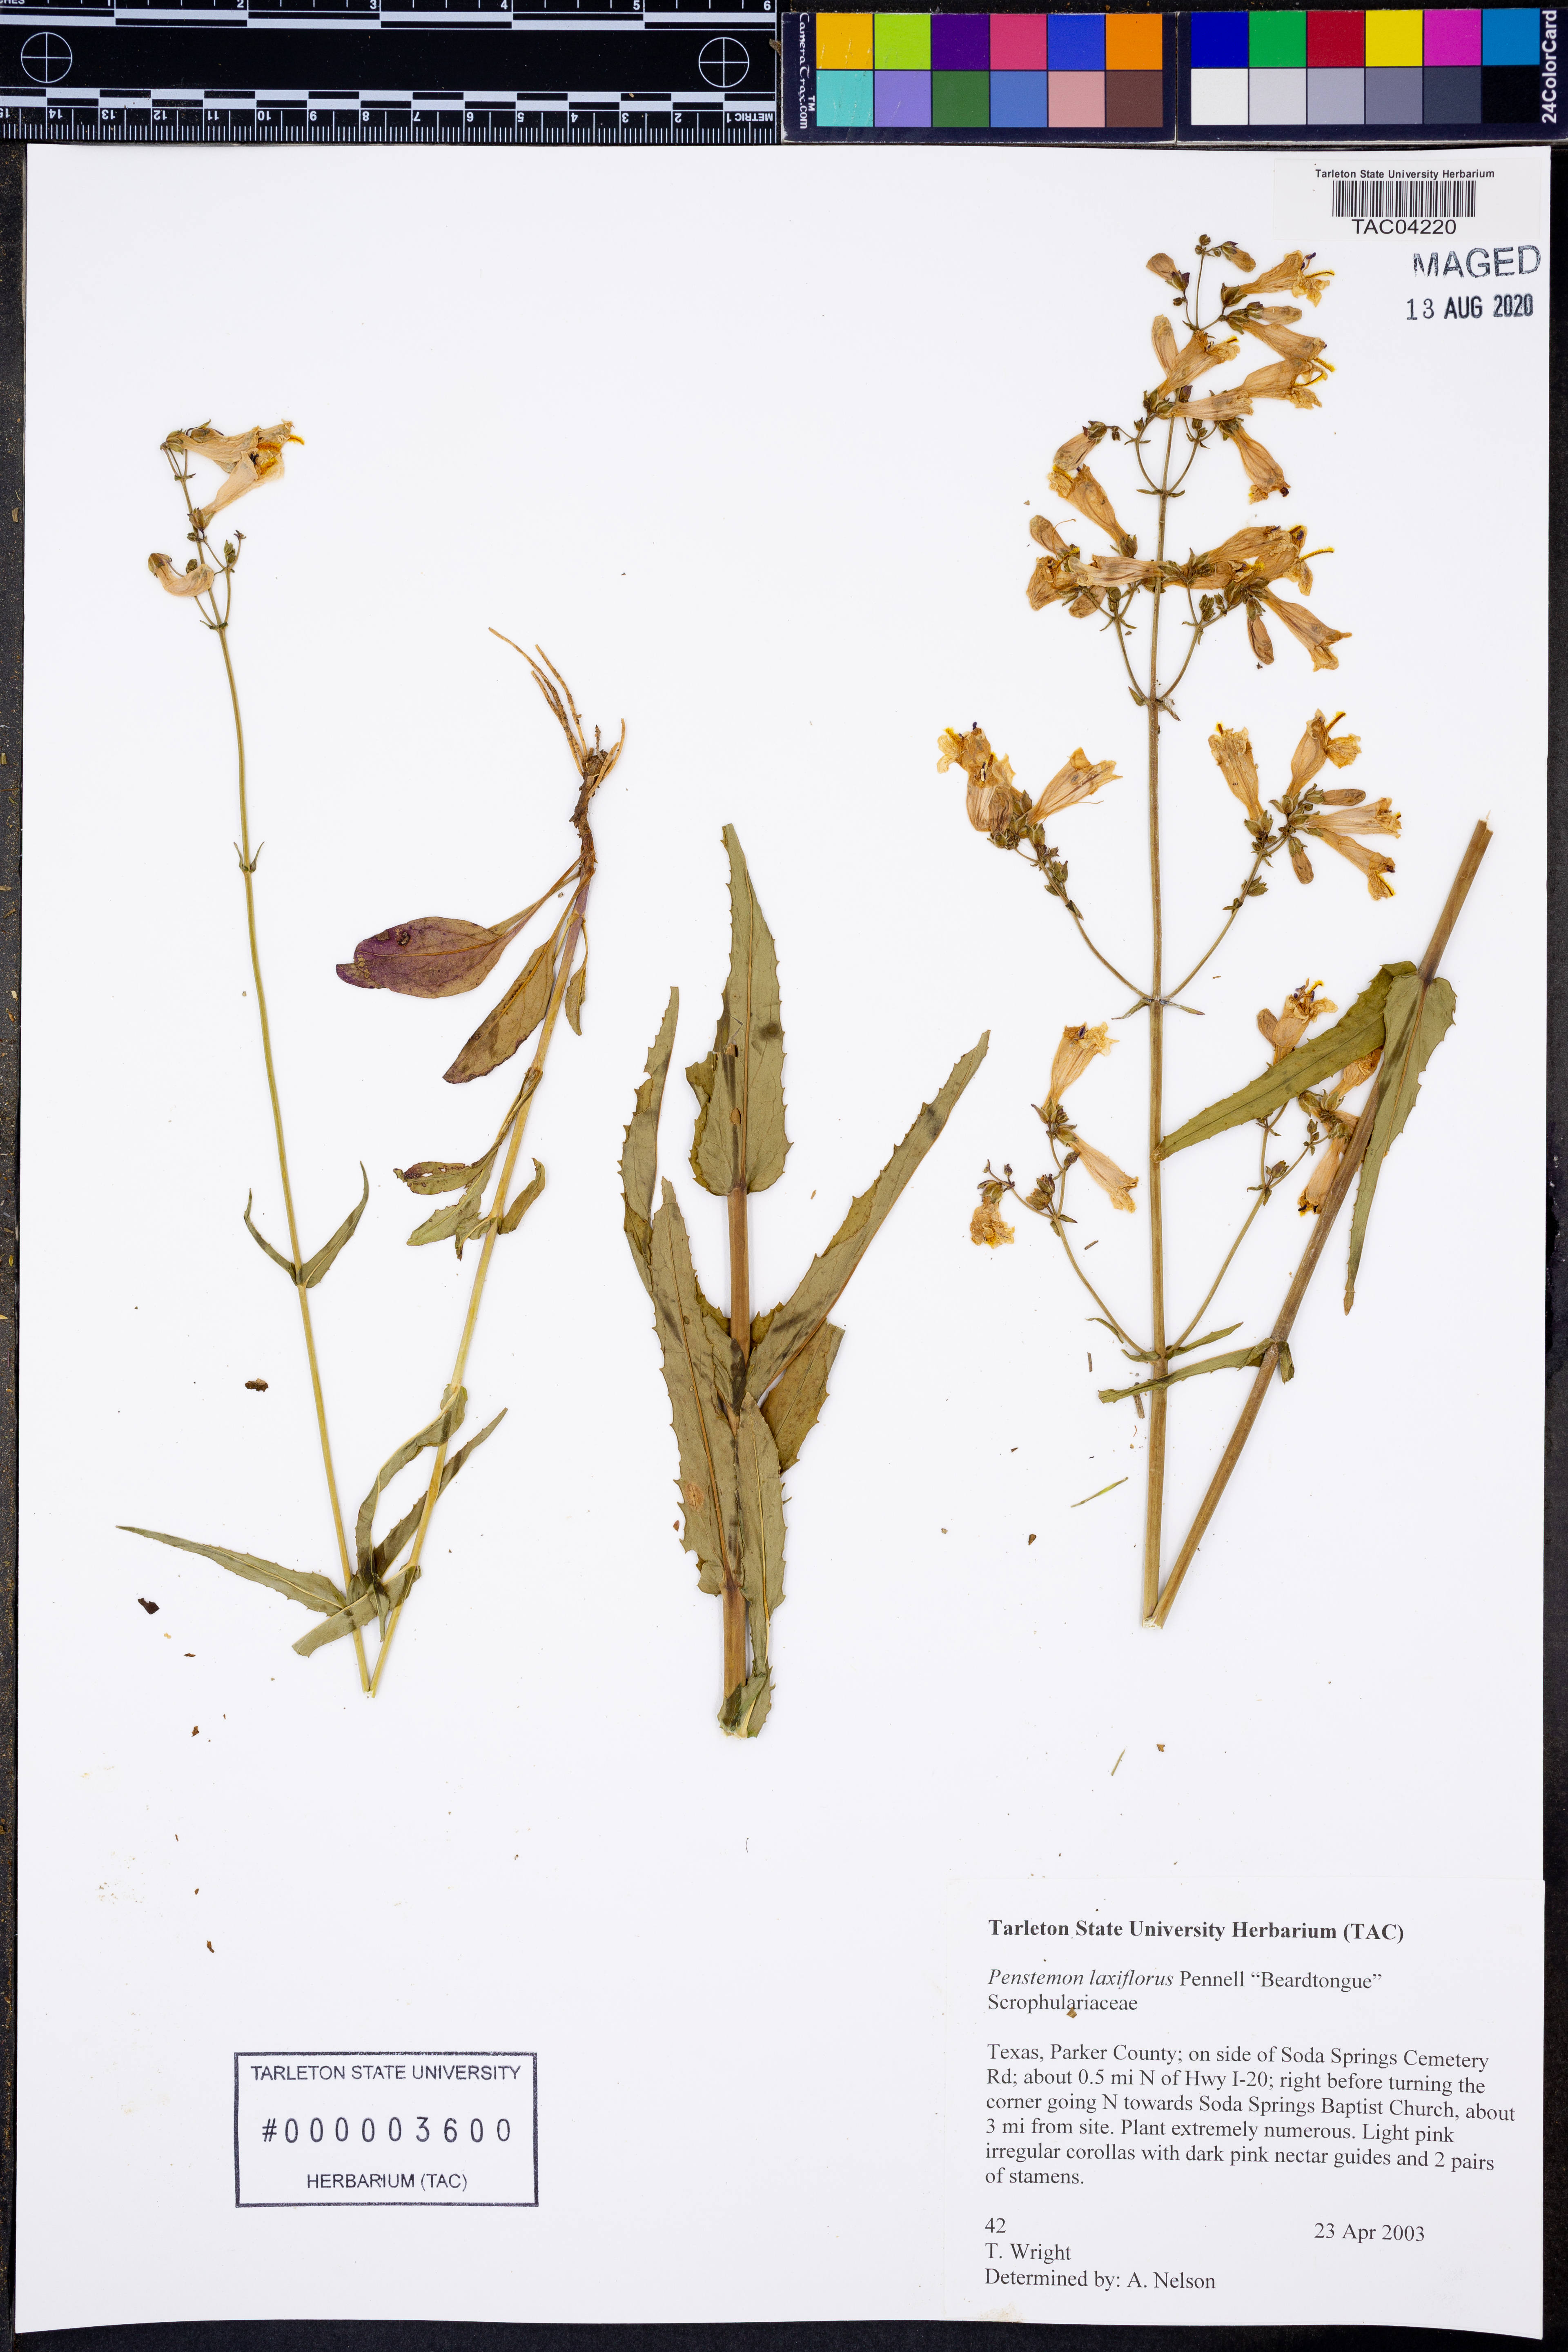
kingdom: Plantae
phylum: Tracheophyta
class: Magnoliopsida
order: Lamiales
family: Plantaginaceae
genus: Penstemon
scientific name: Penstemon laxiflorus
